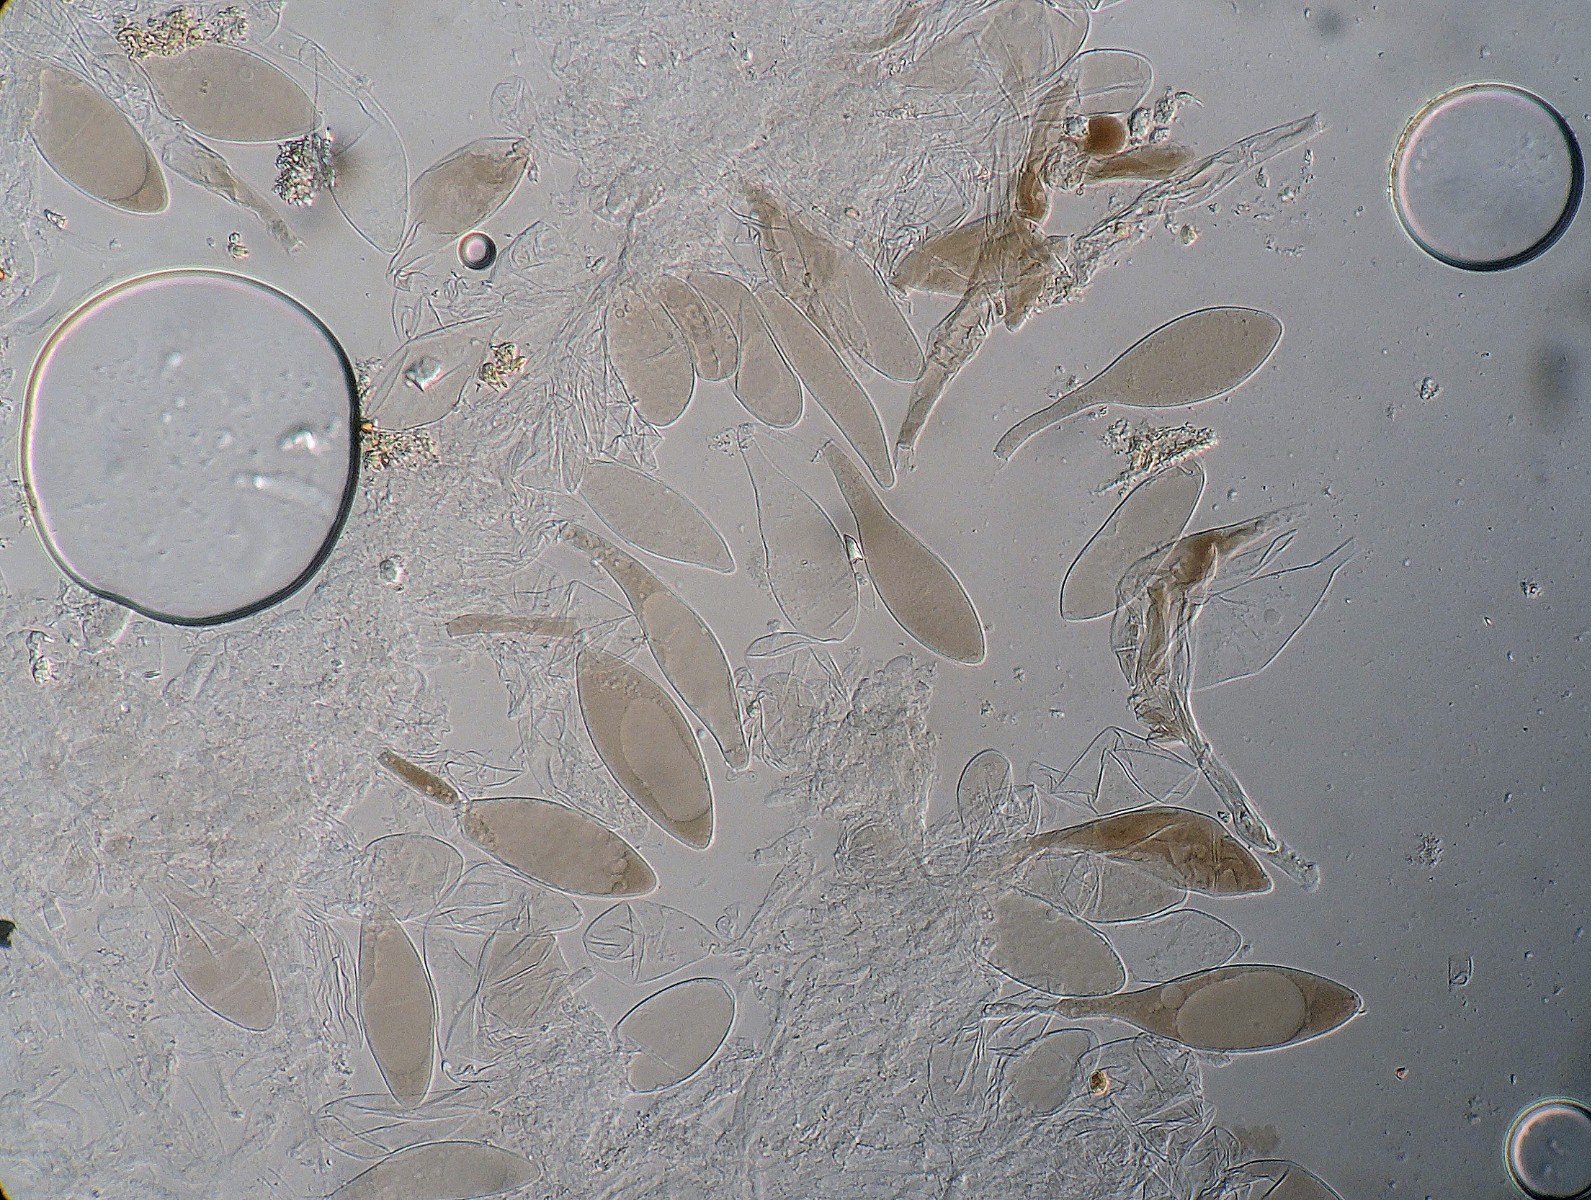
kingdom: Fungi
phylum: Basidiomycota
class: Agaricomycetes
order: Agaricales
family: Pluteaceae
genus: Pluteus
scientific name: Pluteus podospileus
